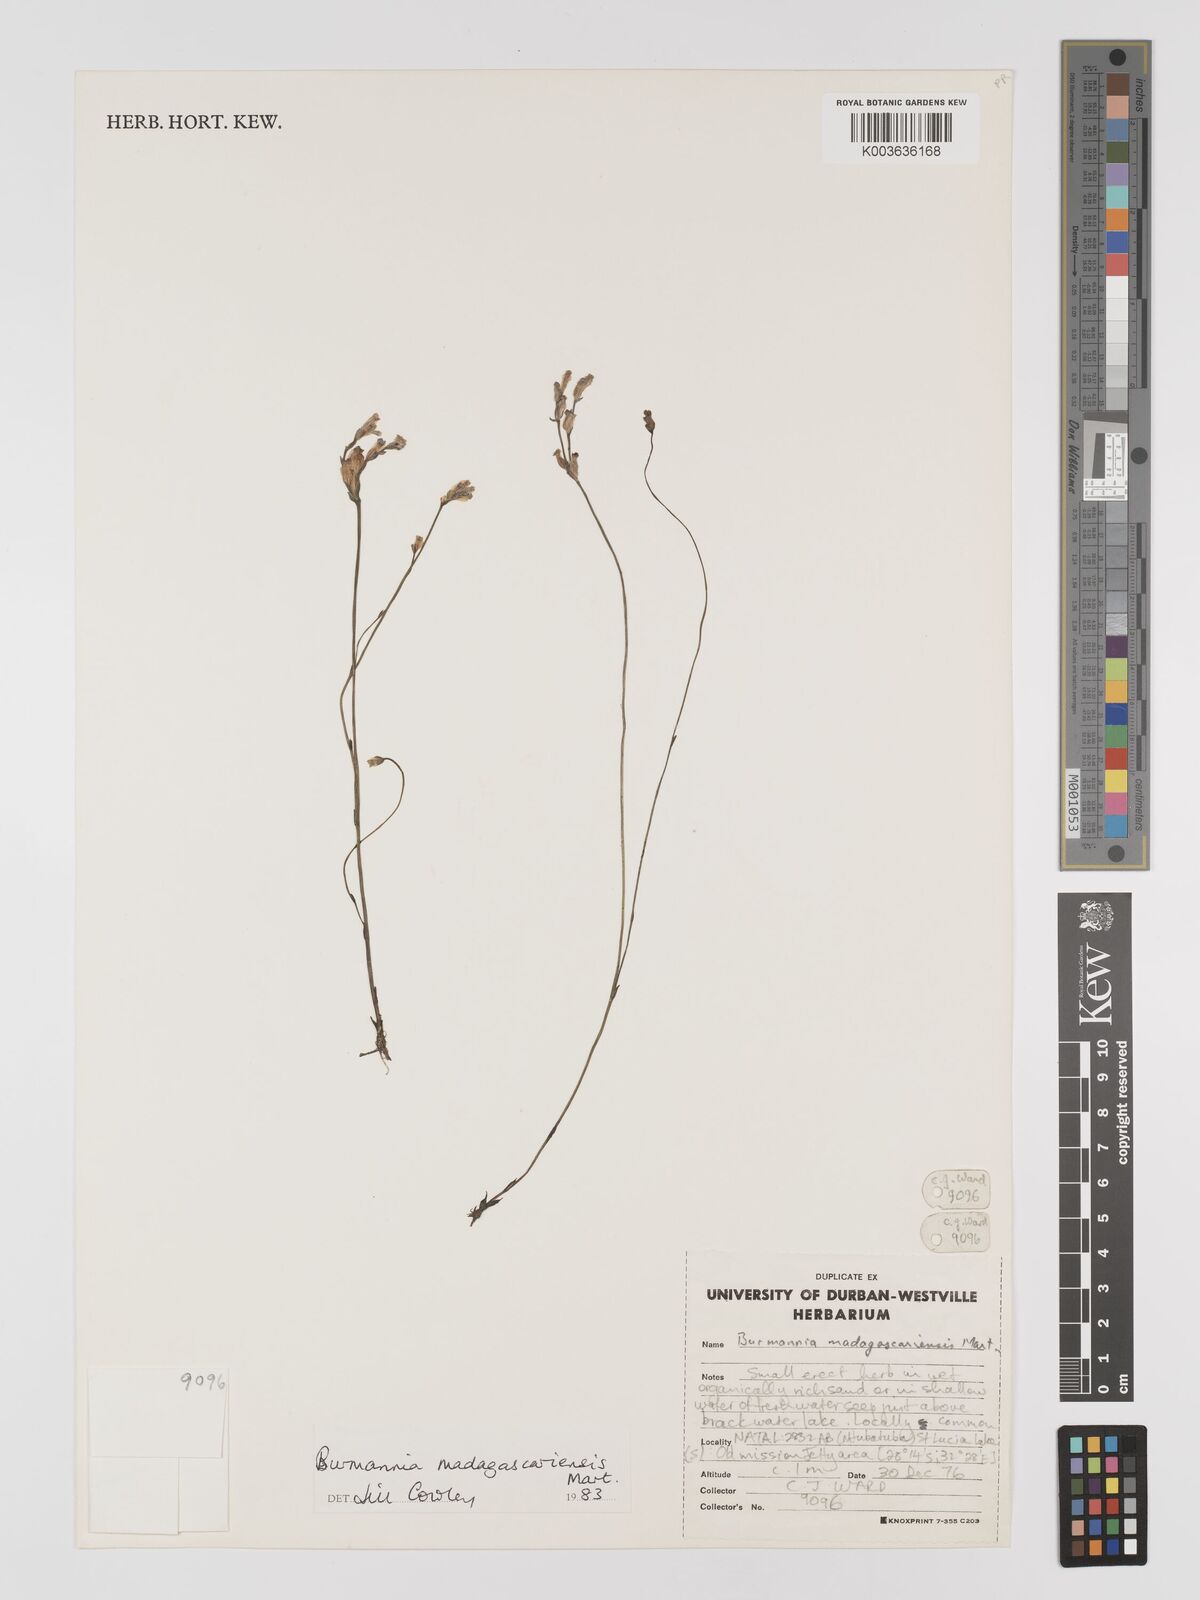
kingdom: Plantae
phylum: Tracheophyta
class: Liliopsida
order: Dioscoreales
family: Burmanniaceae
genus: Burmannia
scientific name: Burmannia madagascariensis
